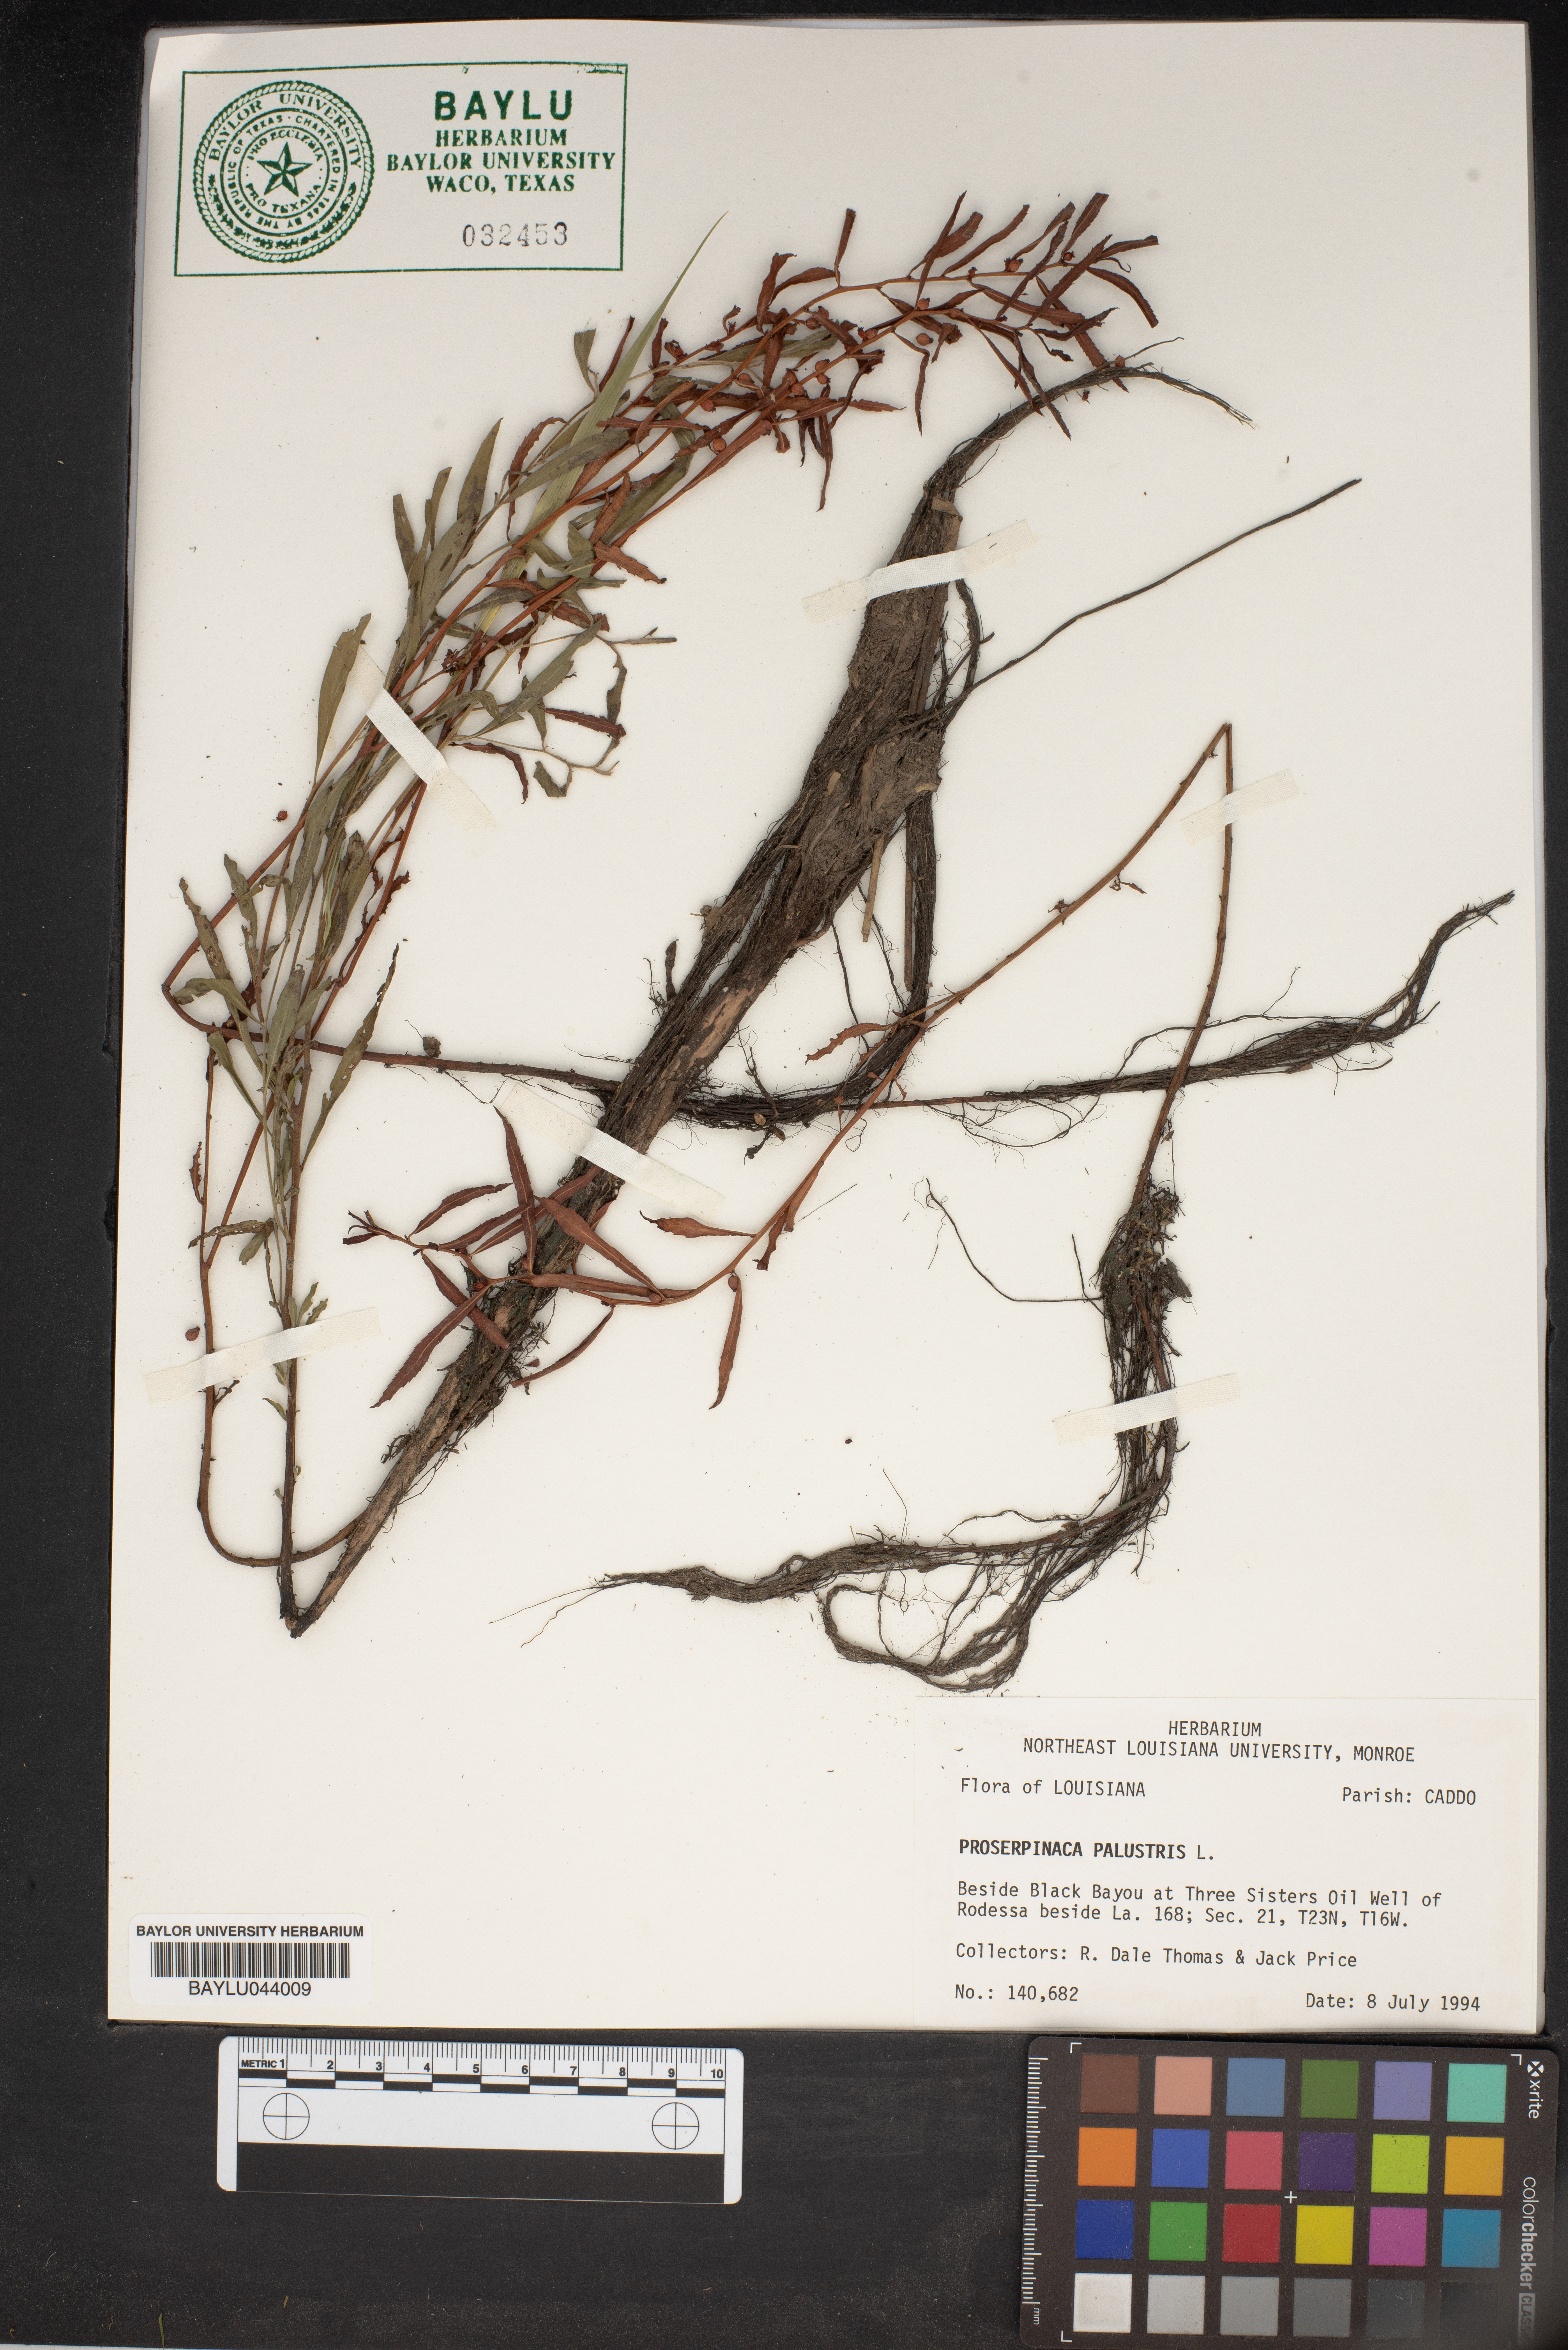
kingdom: Plantae
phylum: Tracheophyta
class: Magnoliopsida
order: Saxifragales
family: Haloragaceae
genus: Proserpinaca
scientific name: Proserpinaca palustris
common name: Marsh mermaidweed
